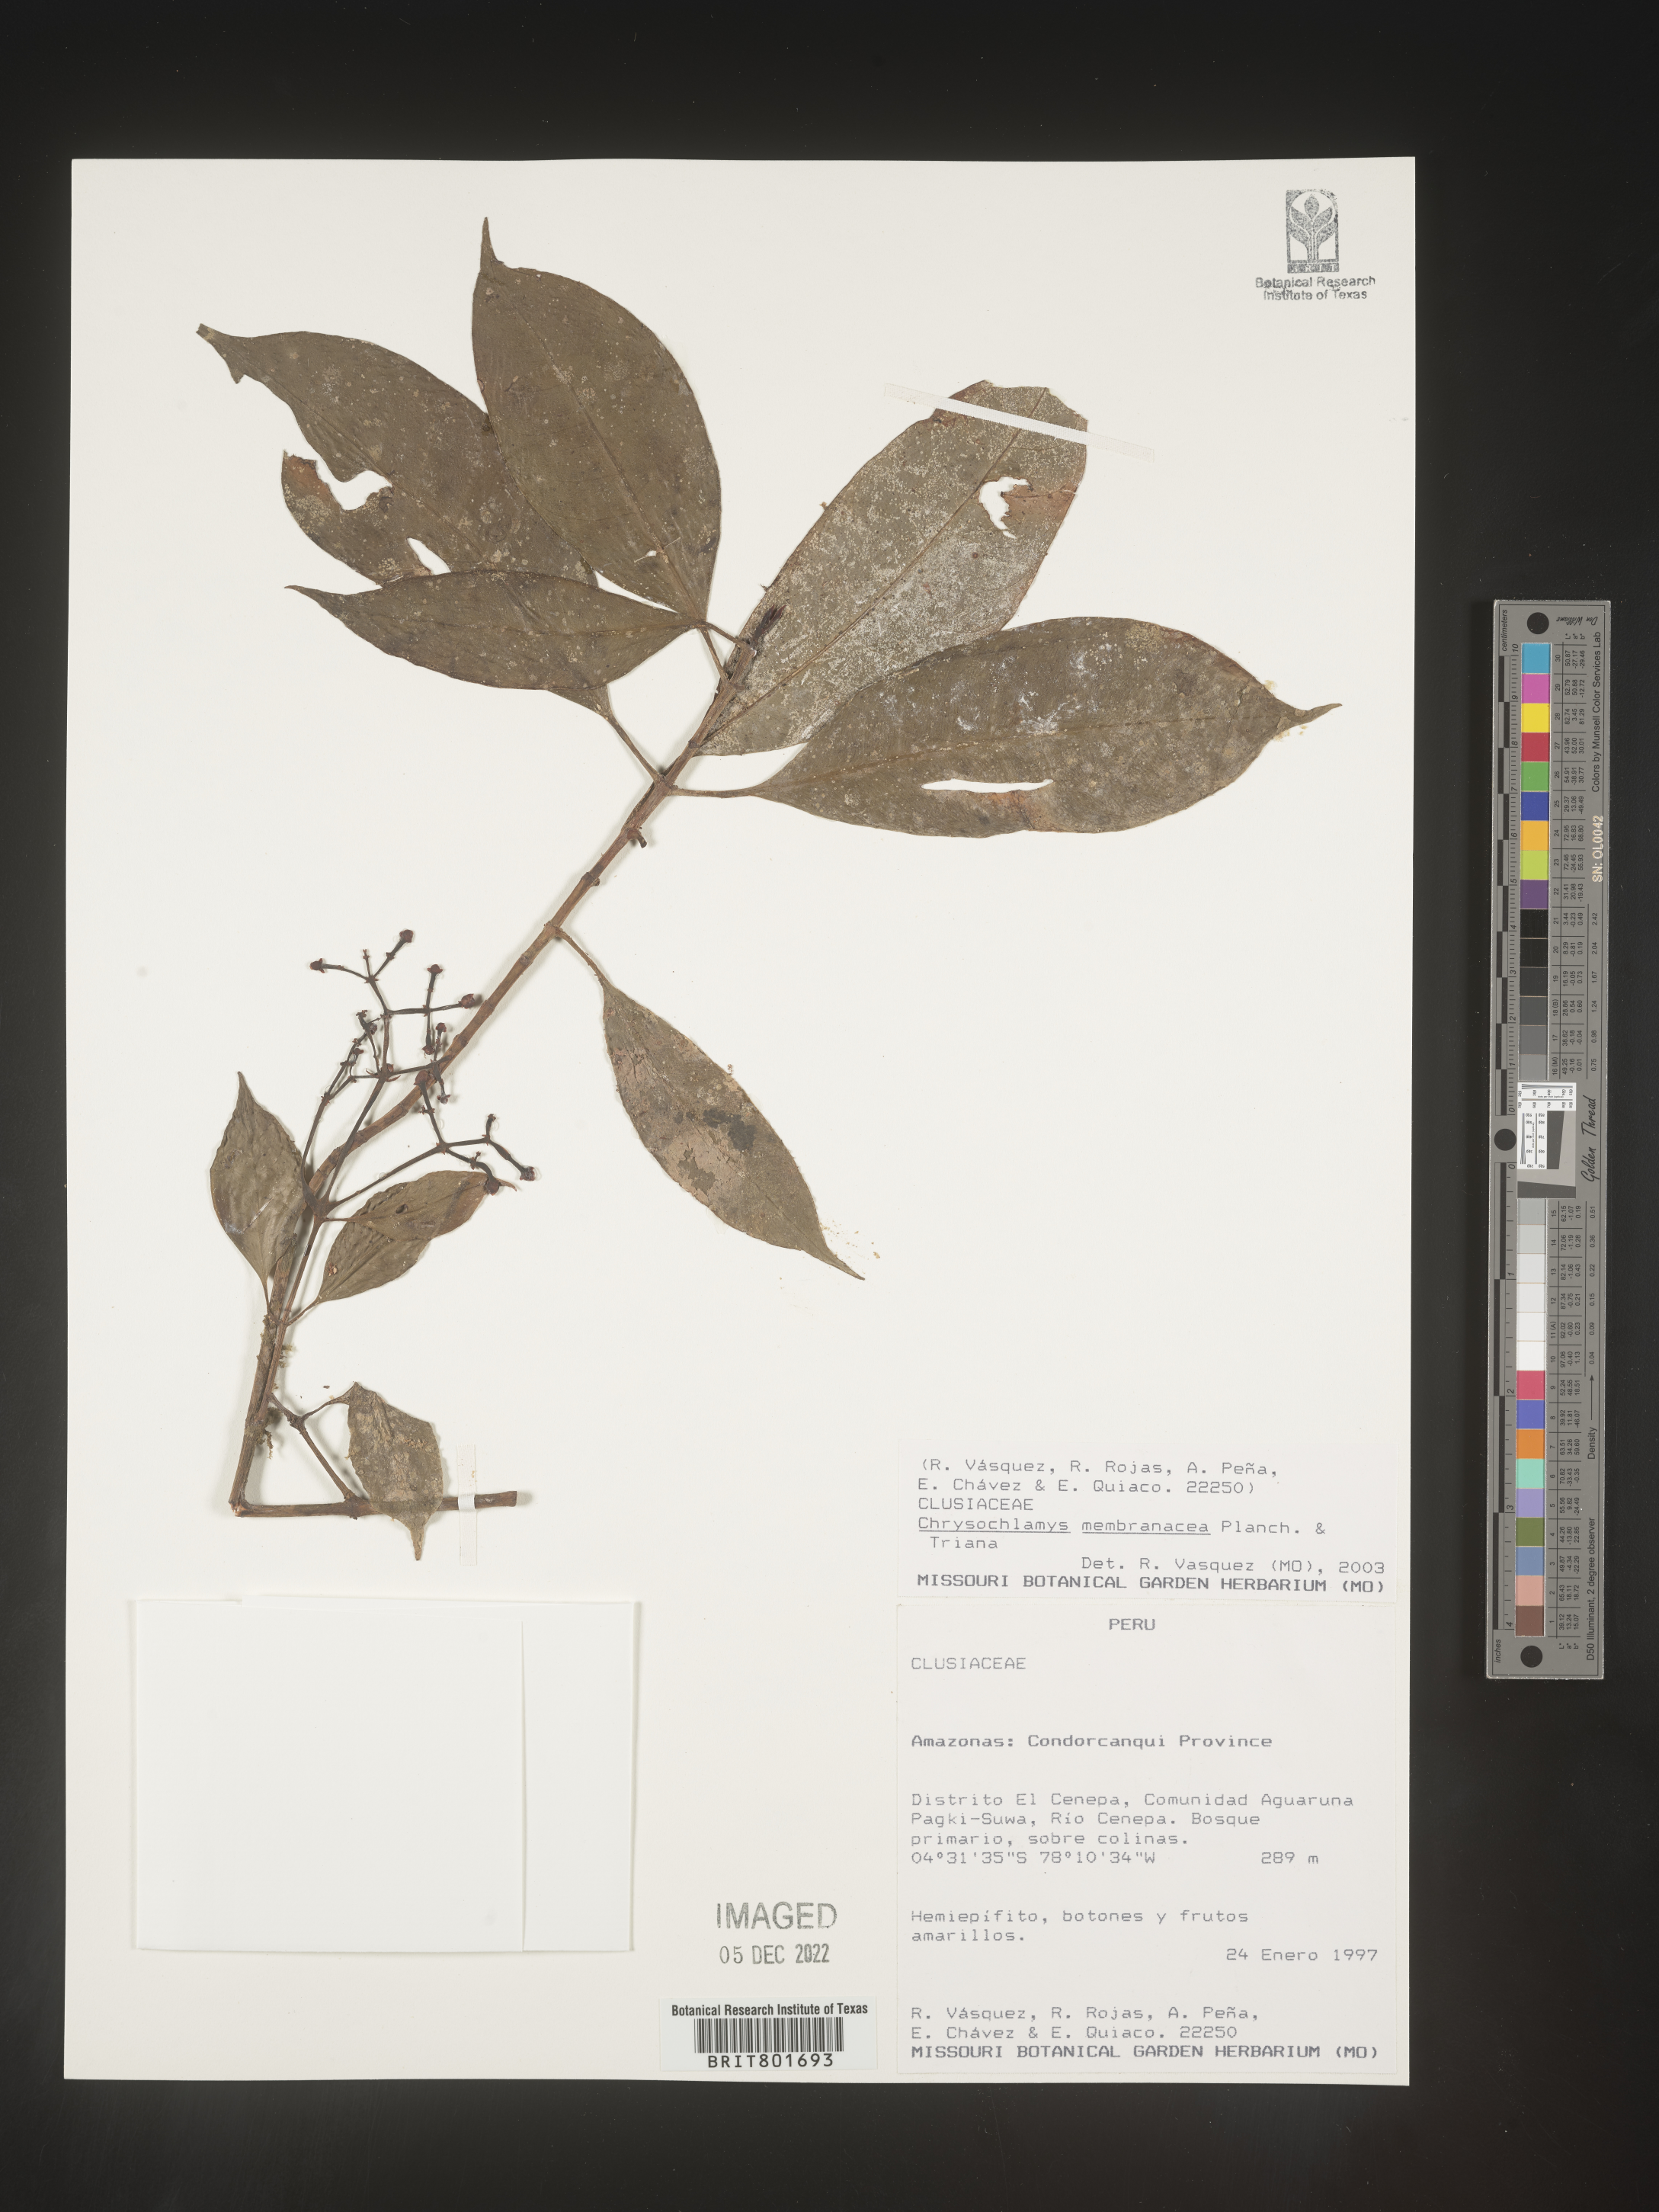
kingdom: Plantae
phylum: Tracheophyta
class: Magnoliopsida
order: Malpighiales
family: Clusiaceae
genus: Chrysochlamys
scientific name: Chrysochlamys
